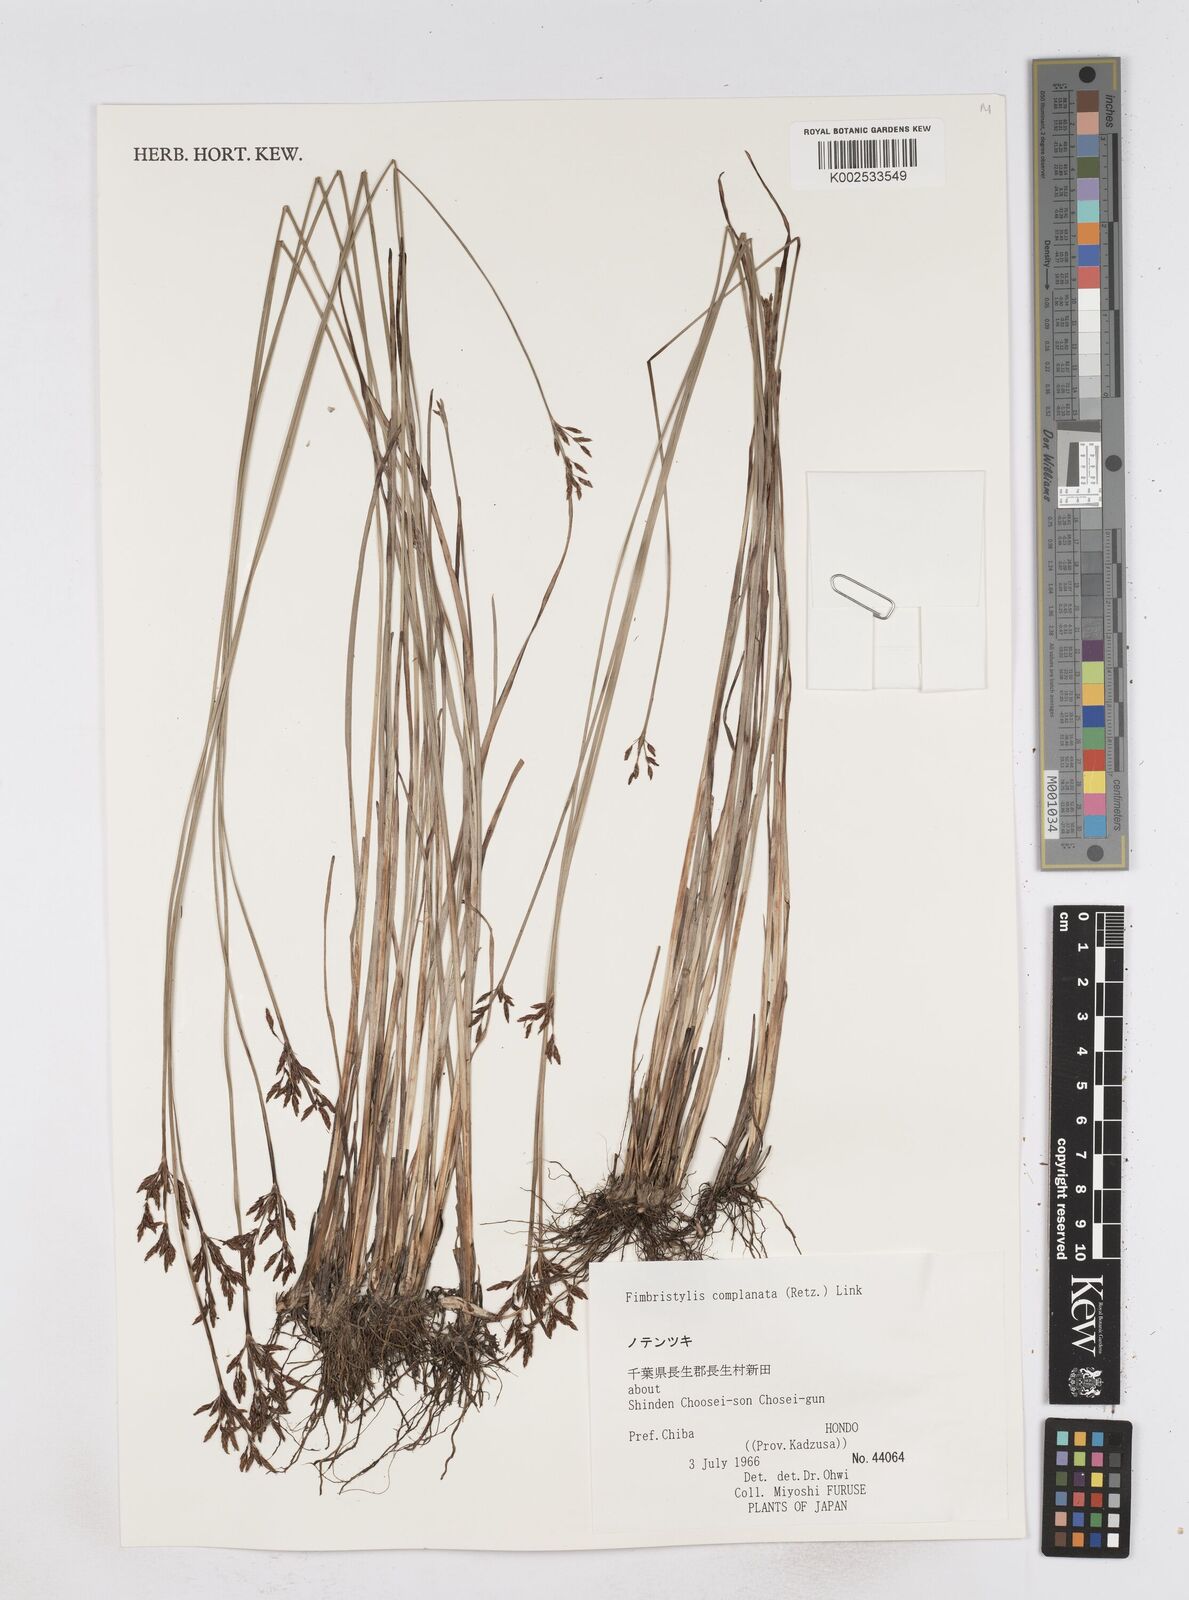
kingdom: Plantae
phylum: Tracheophyta
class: Liliopsida
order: Poales
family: Cyperaceae
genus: Fimbristylis
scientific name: Fimbristylis complanata
